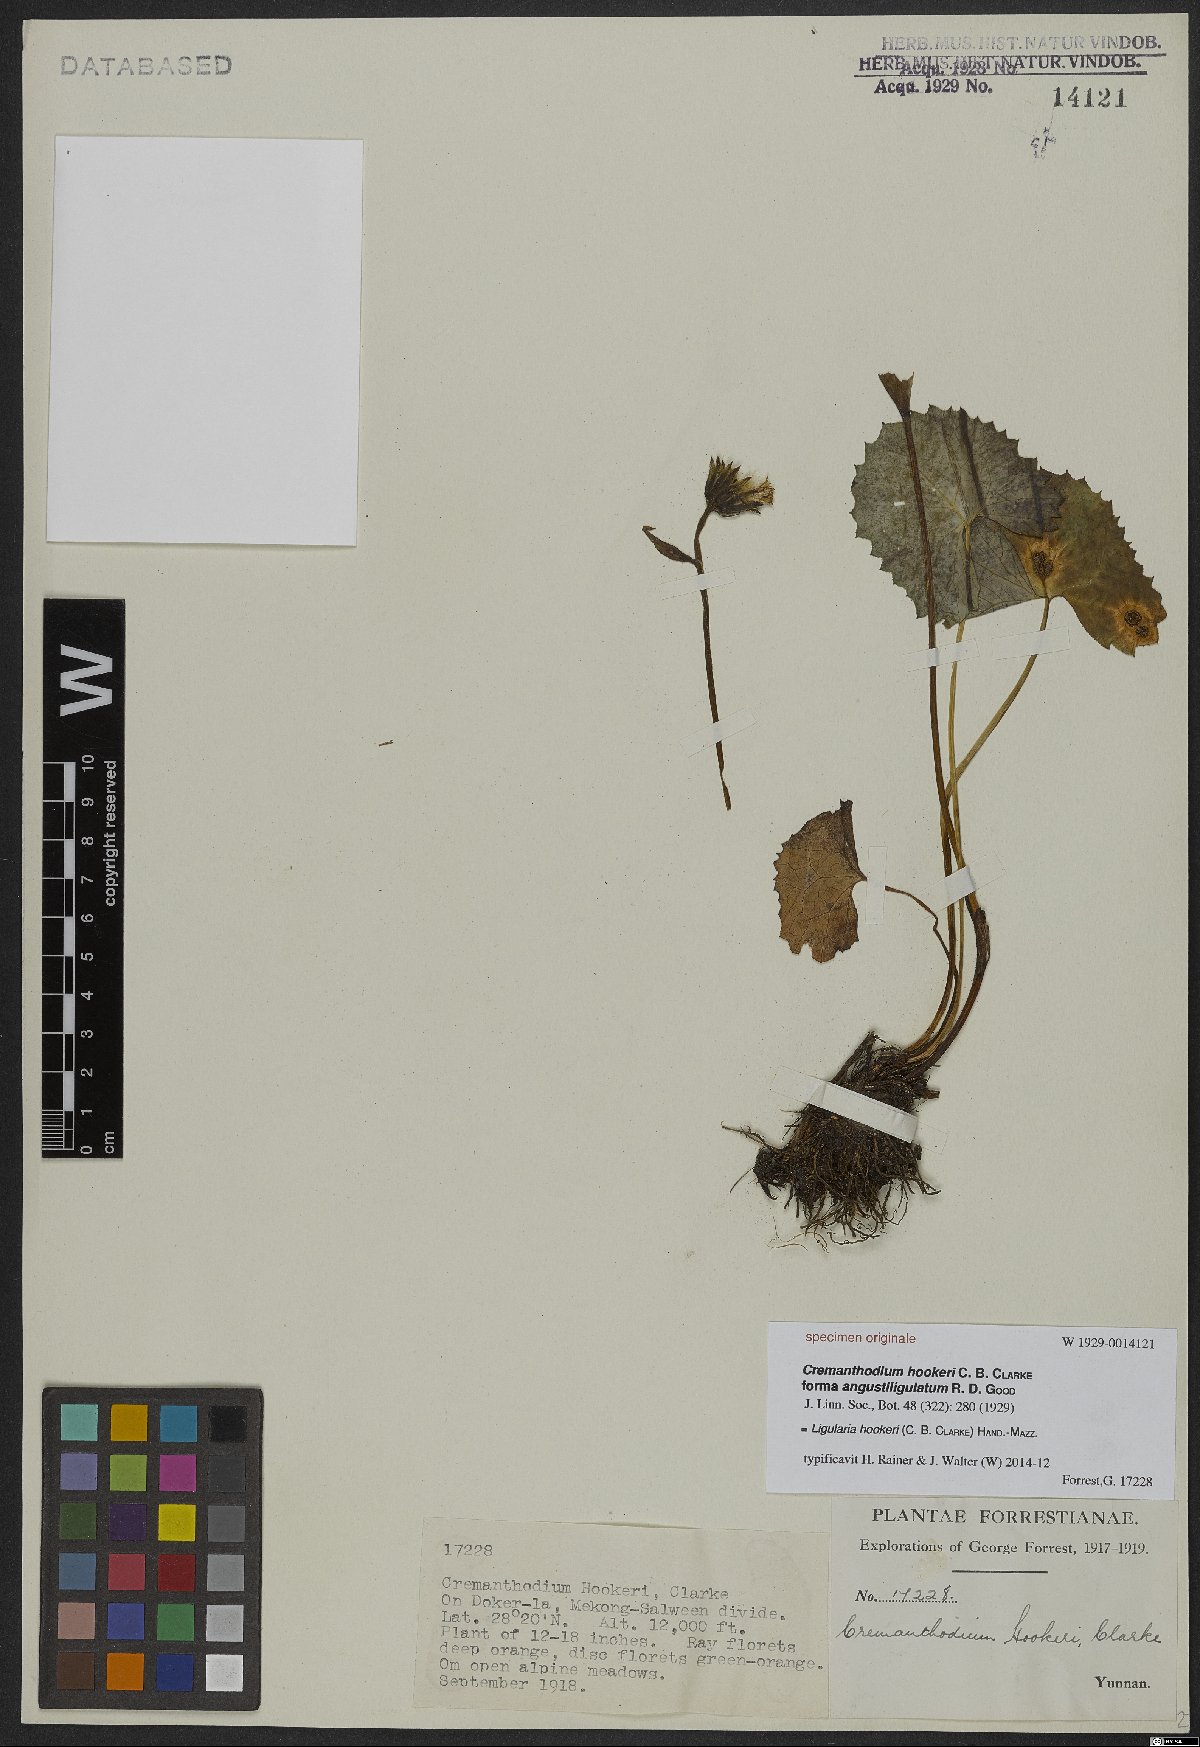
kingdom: Plantae
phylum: Tracheophyta
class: Magnoliopsida
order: Asterales
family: Asteraceae
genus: Ligularia
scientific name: Ligularia hookeri
